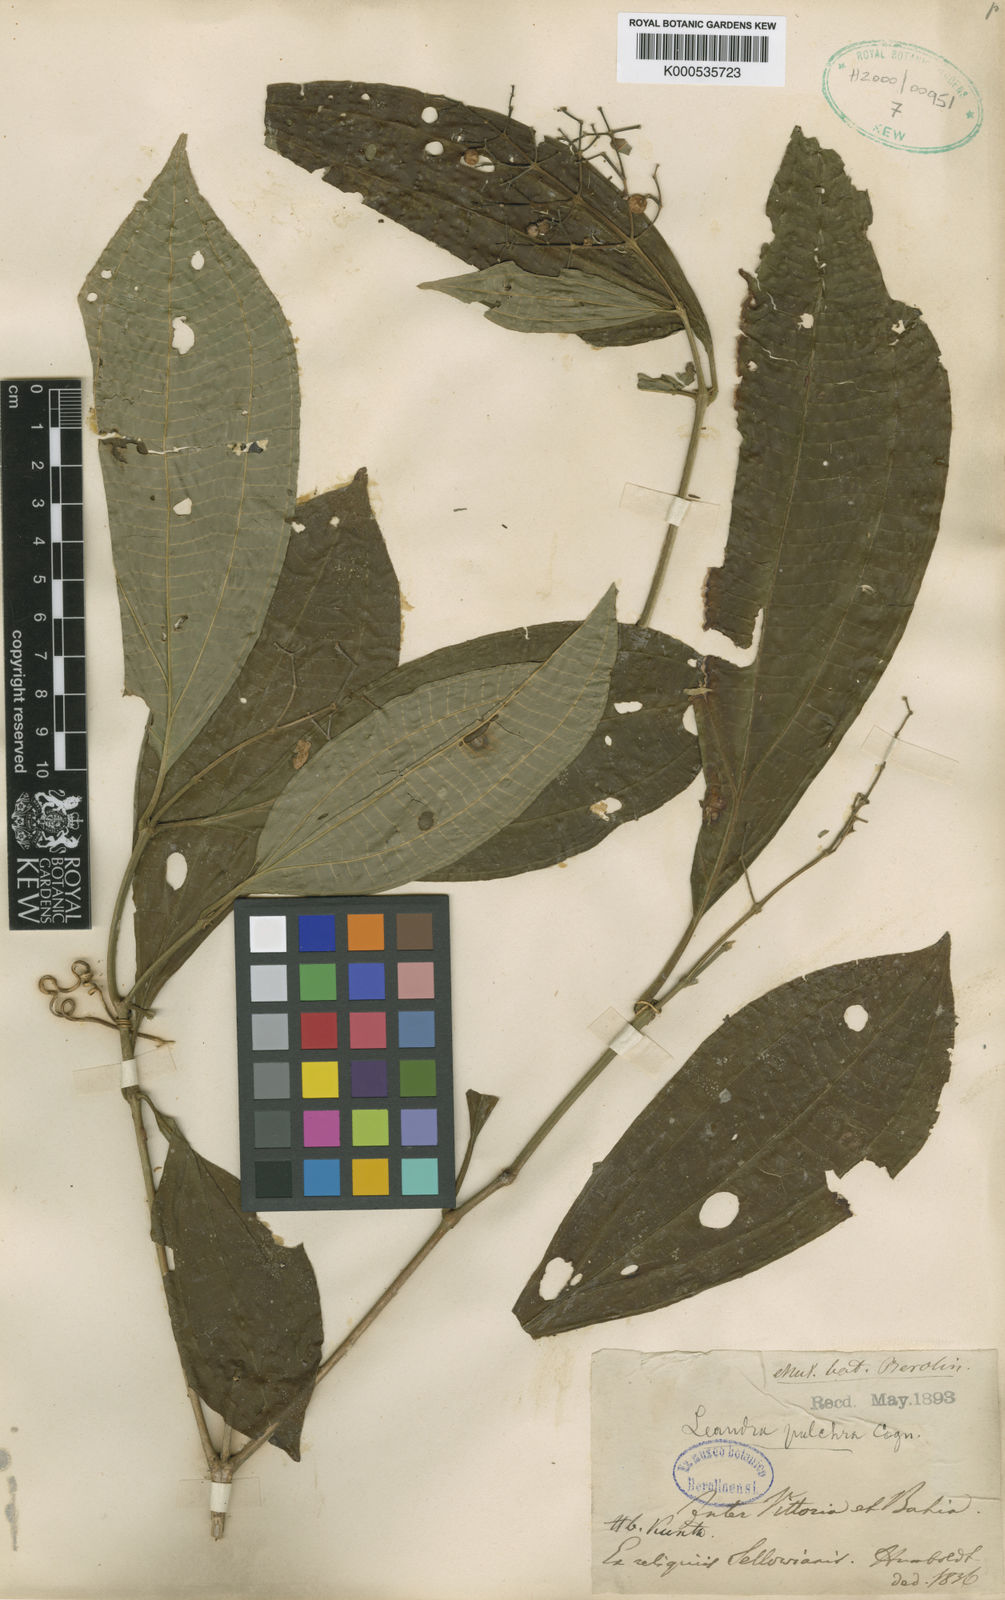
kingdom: Plantae
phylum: Tracheophyta
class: Magnoliopsida
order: Myrtales
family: Melastomataceae
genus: Miconia
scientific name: Miconia leagrayana
